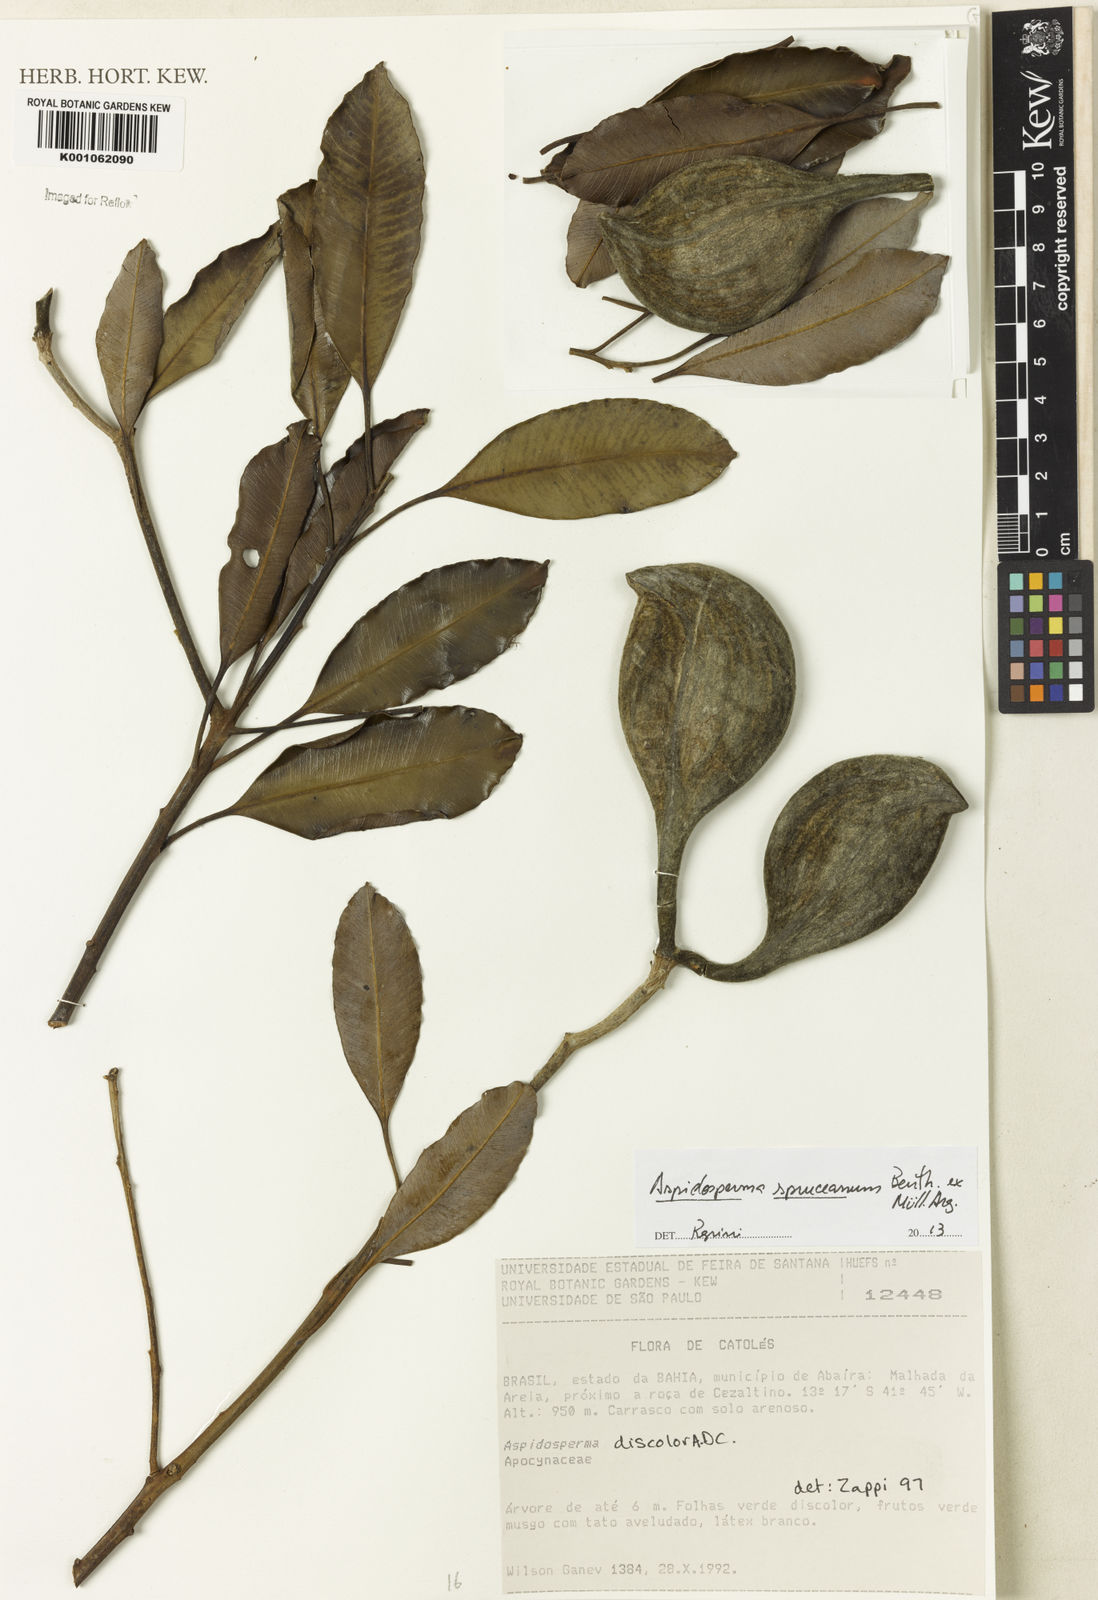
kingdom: Plantae
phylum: Tracheophyta
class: Magnoliopsida
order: Gentianales
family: Apocynaceae
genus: Aspidosperma
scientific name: Aspidosperma
